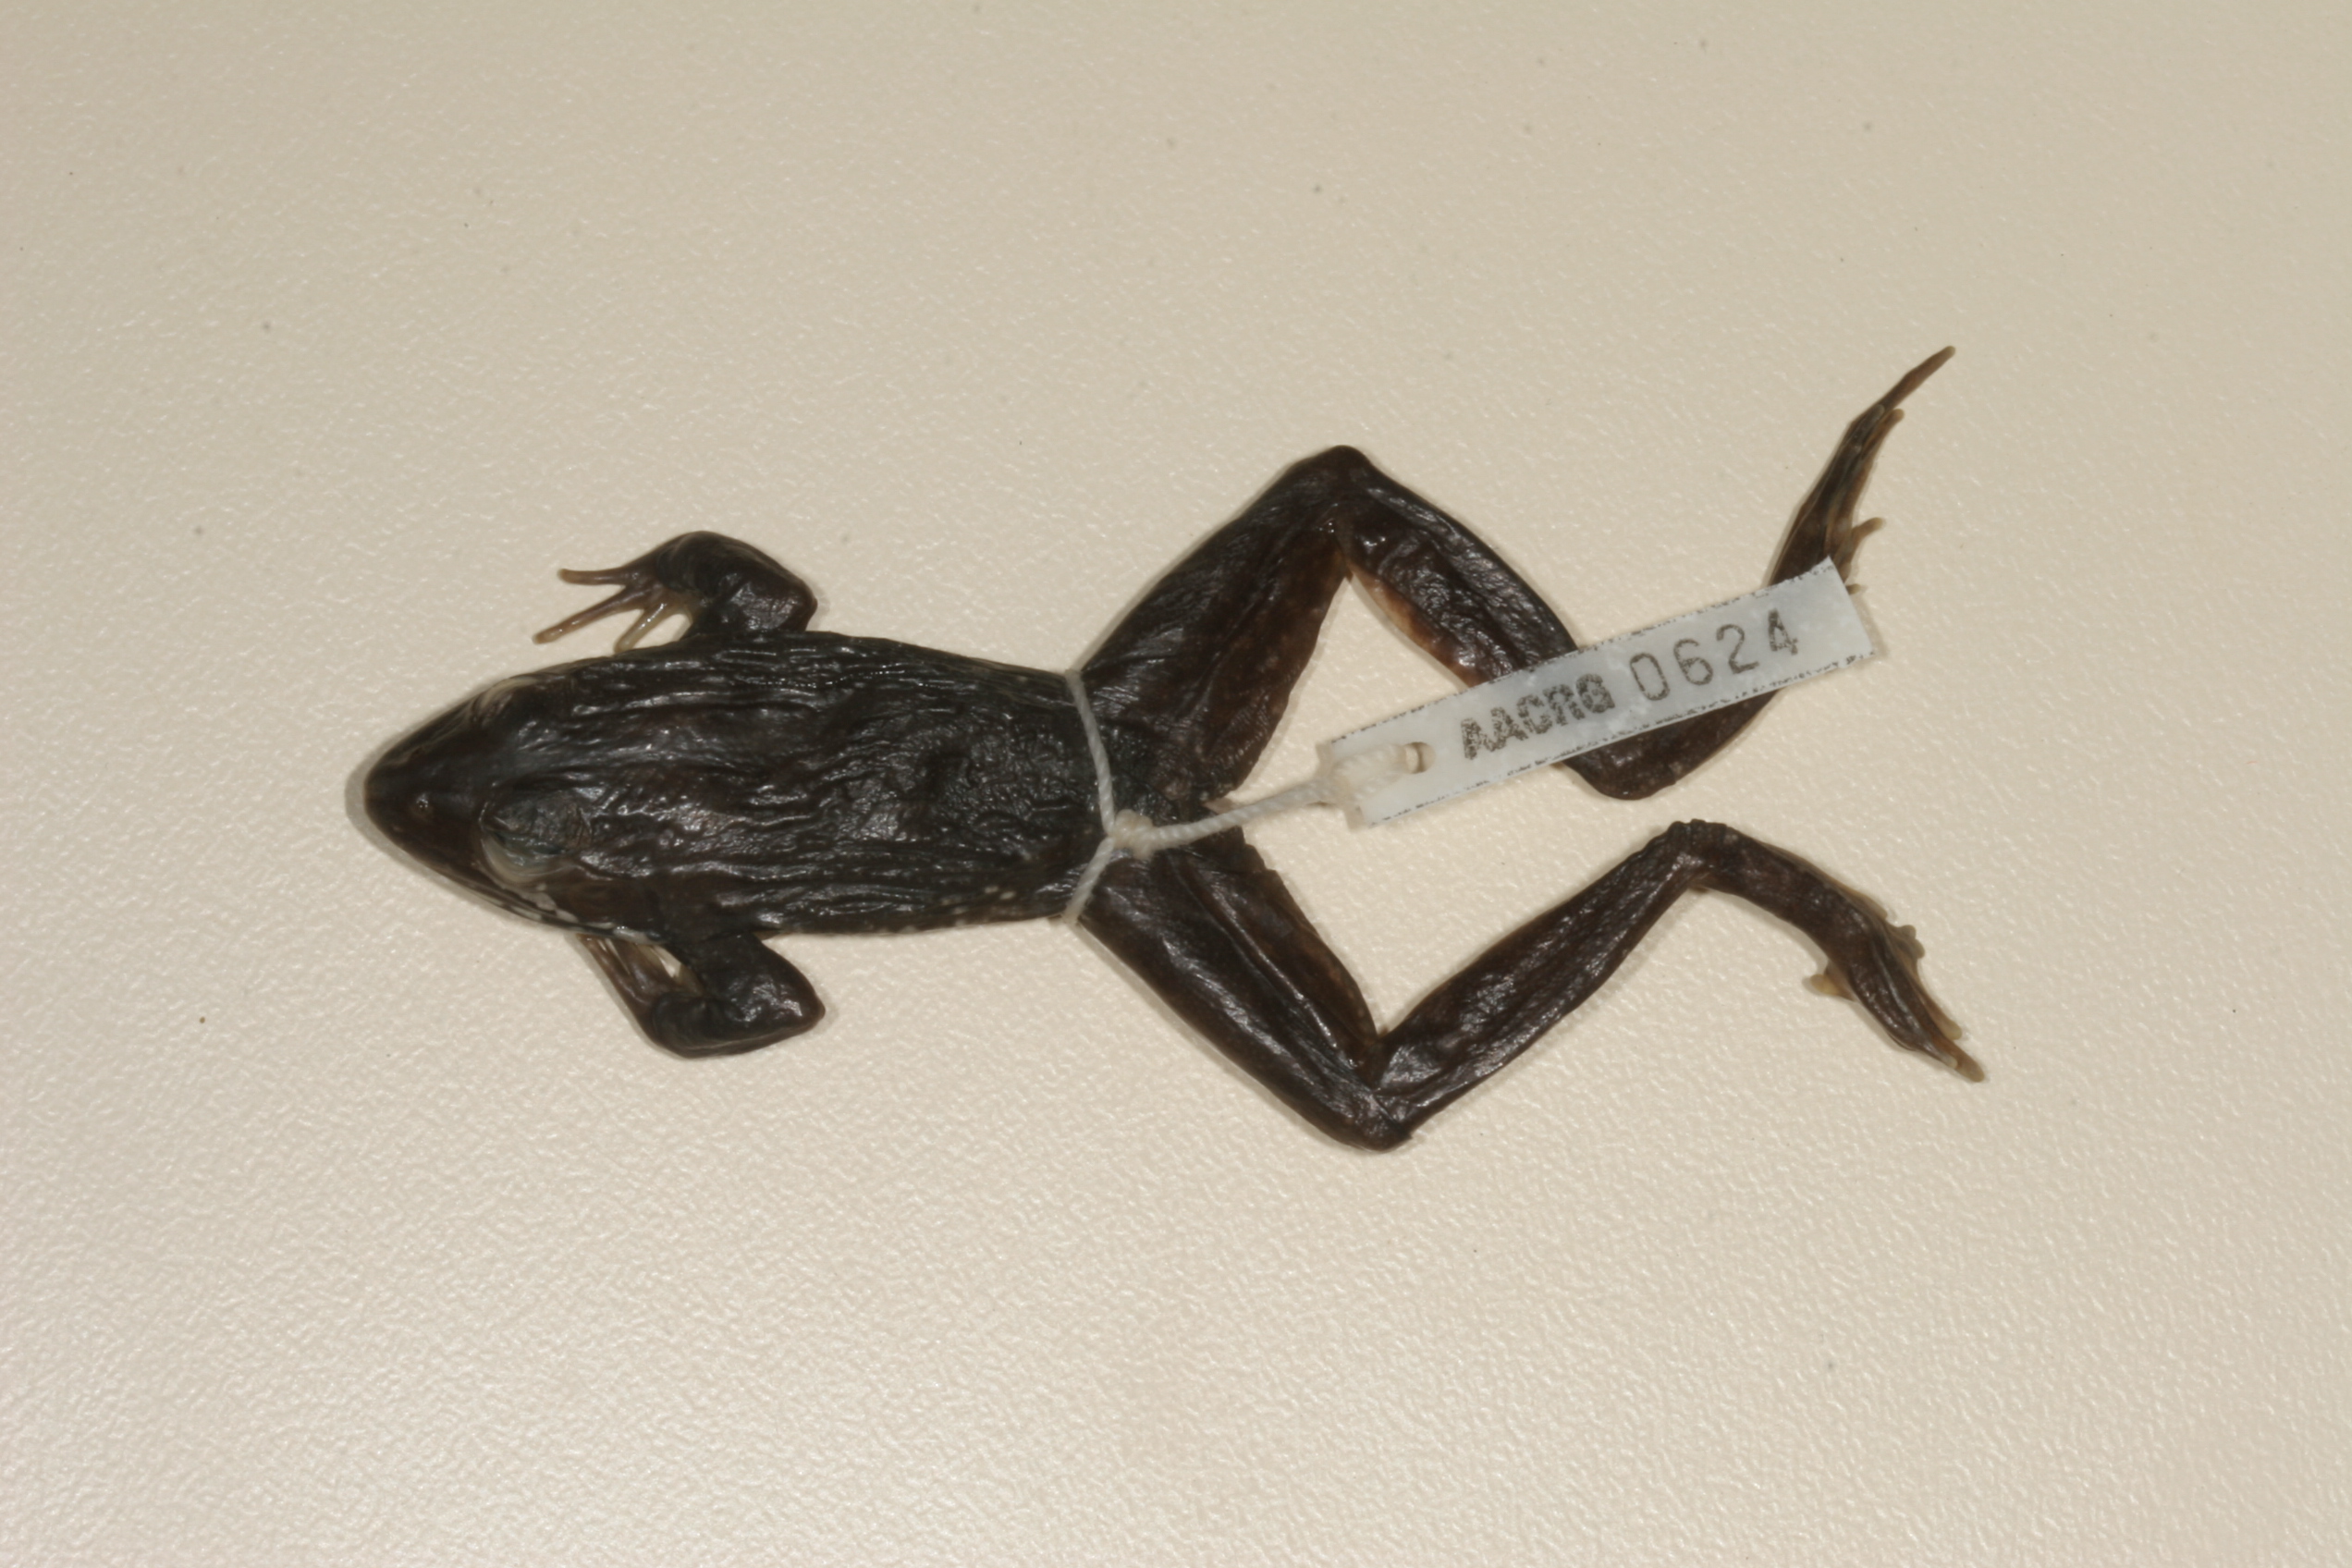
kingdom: Animalia
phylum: Chordata
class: Amphibia
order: Anura
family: Pyxicephalidae
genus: Amietia
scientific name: Amietia angolensis
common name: Dusky-throated frog
